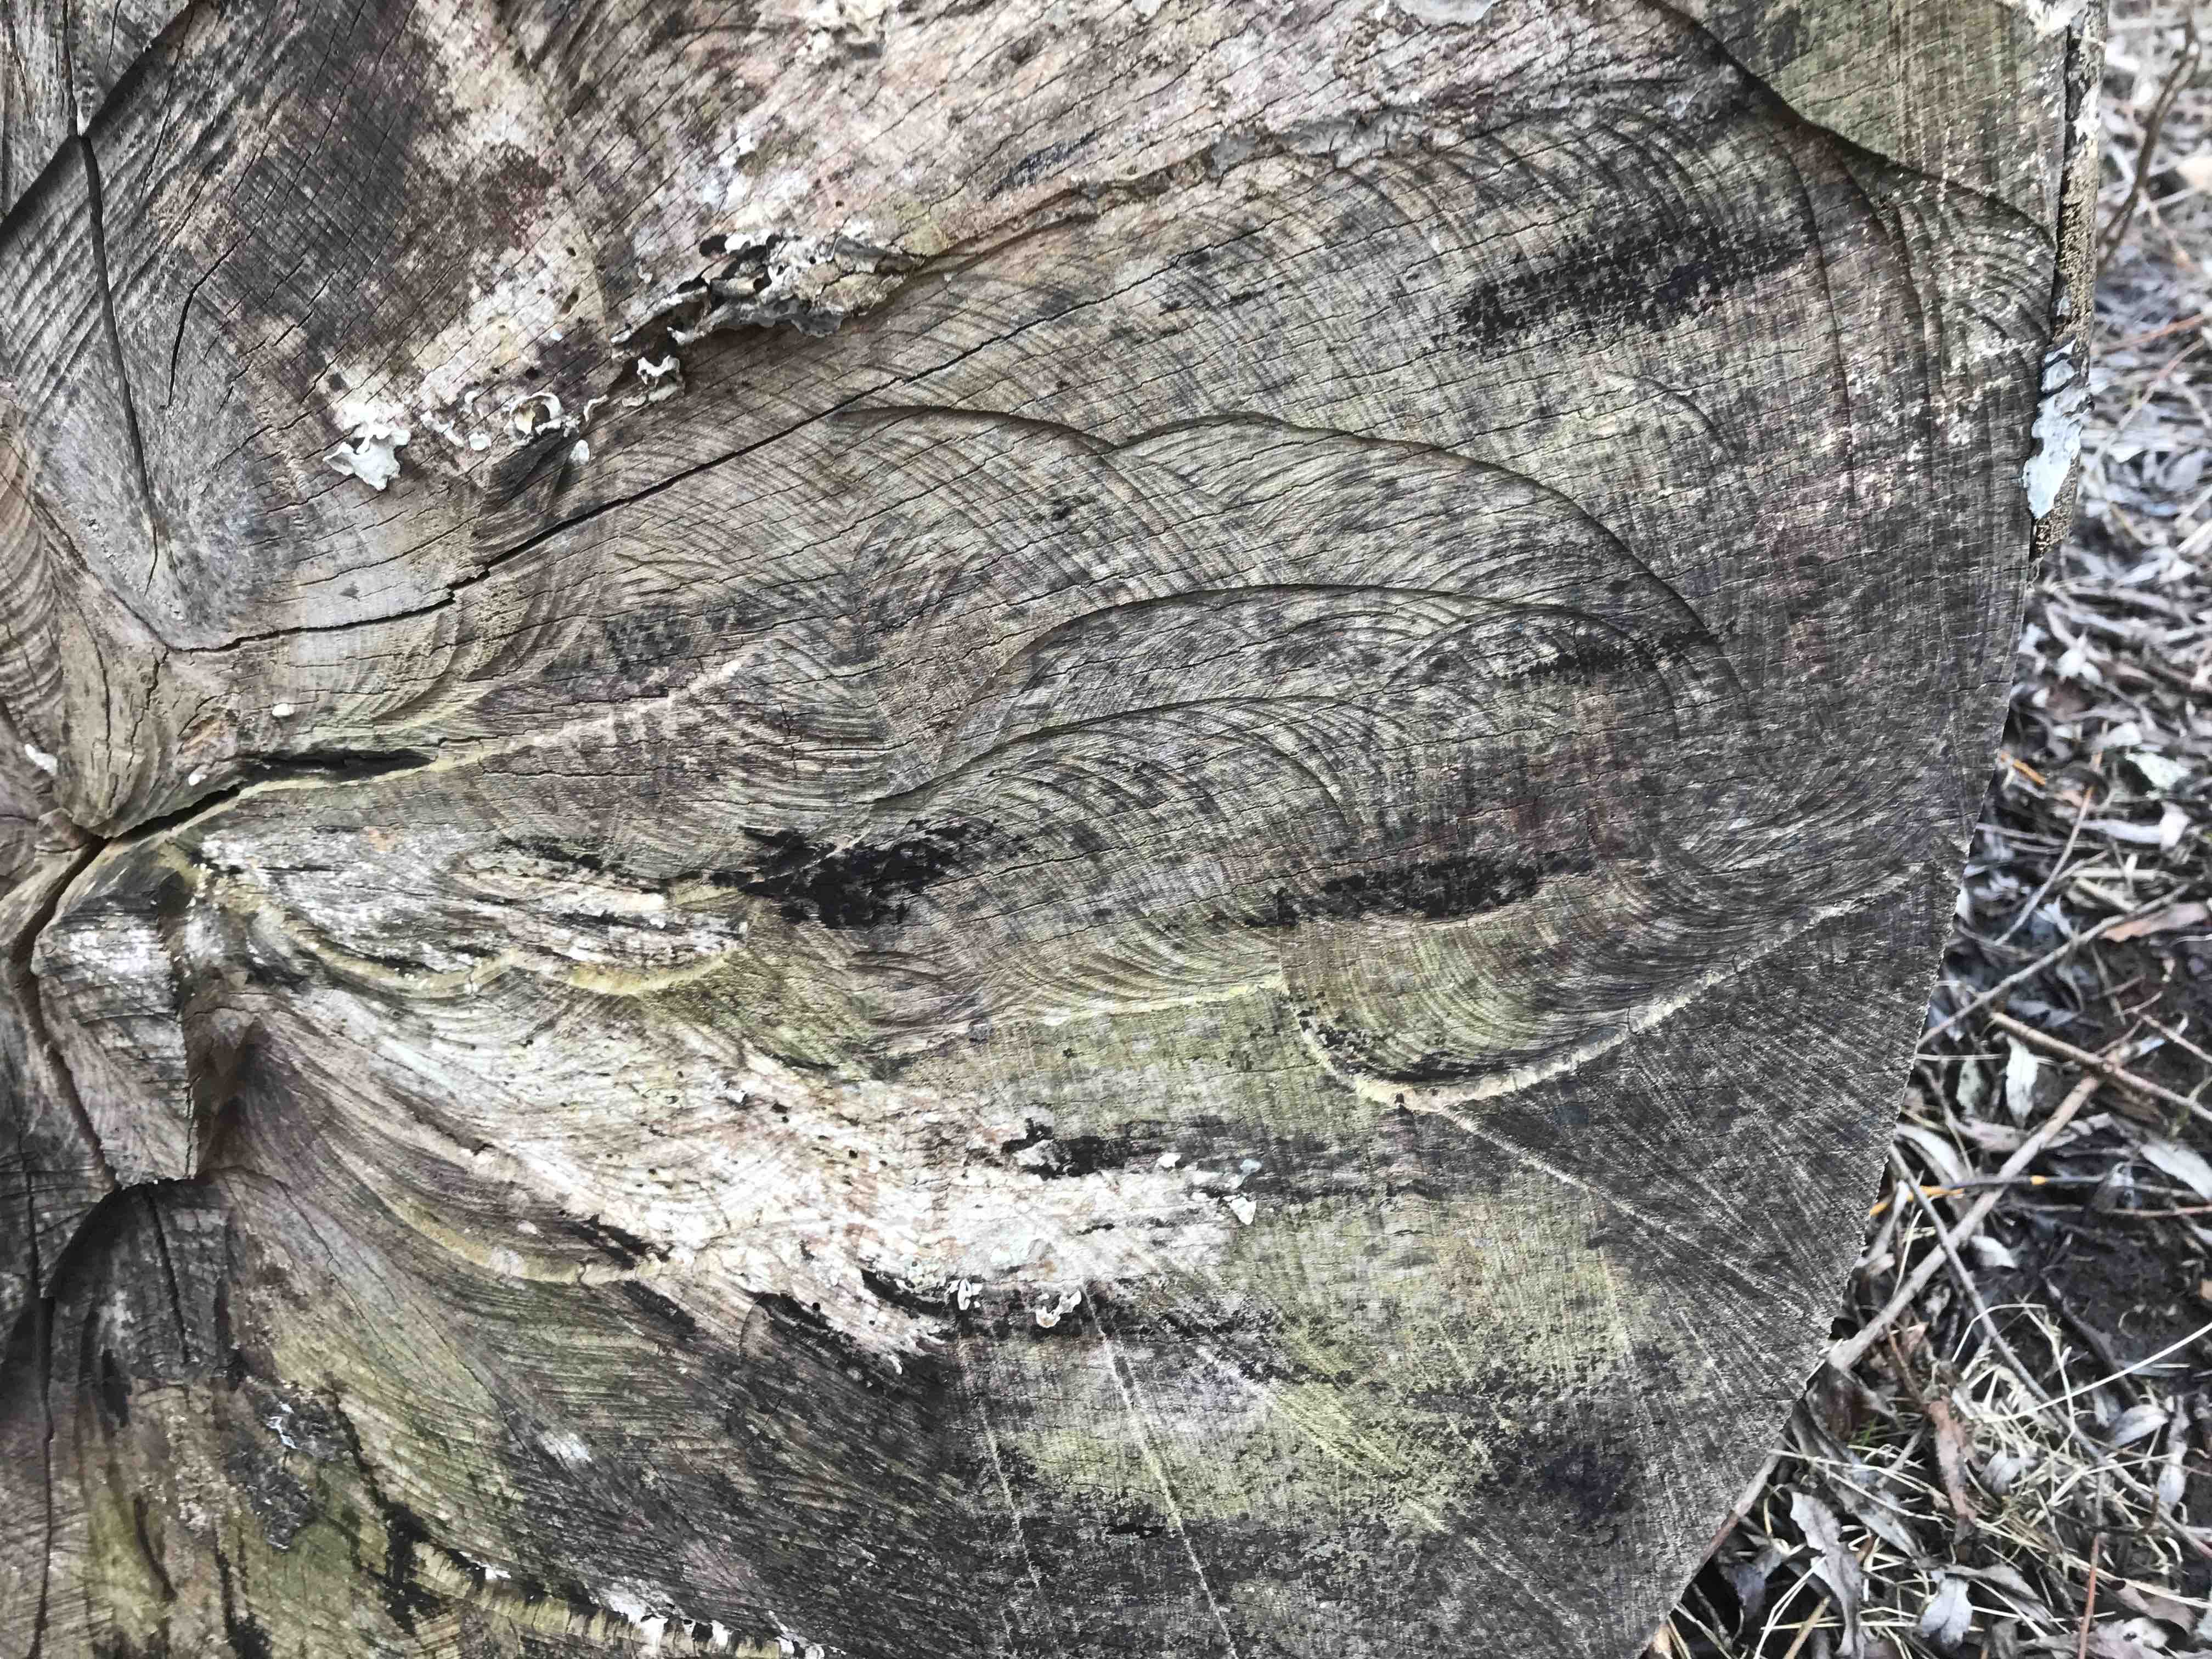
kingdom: Fungi
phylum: Ascomycota
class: Leotiomycetes
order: Helotiales
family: Helotiaceae
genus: Bispora
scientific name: Bispora pallescens
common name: måtte-snitskive
